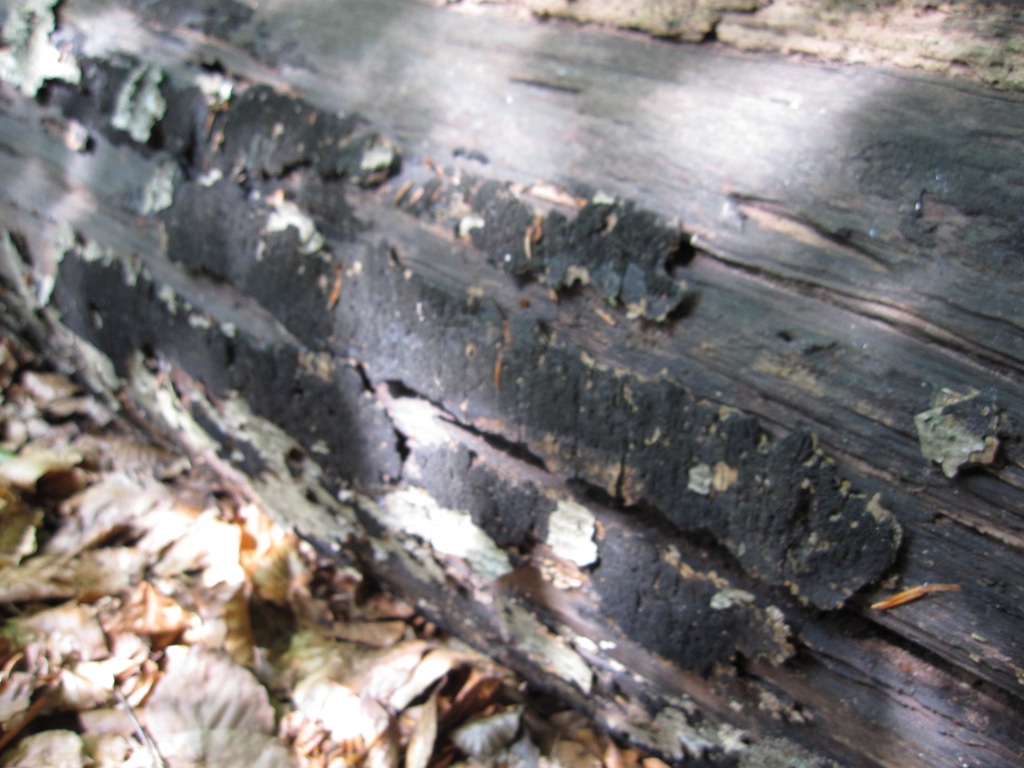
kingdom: Fungi
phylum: Ascomycota
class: Sordariomycetes
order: Xylariales
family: Diatrypaceae
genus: Eutypa
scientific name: Eutypa spinosa
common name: grov kulskorpe
